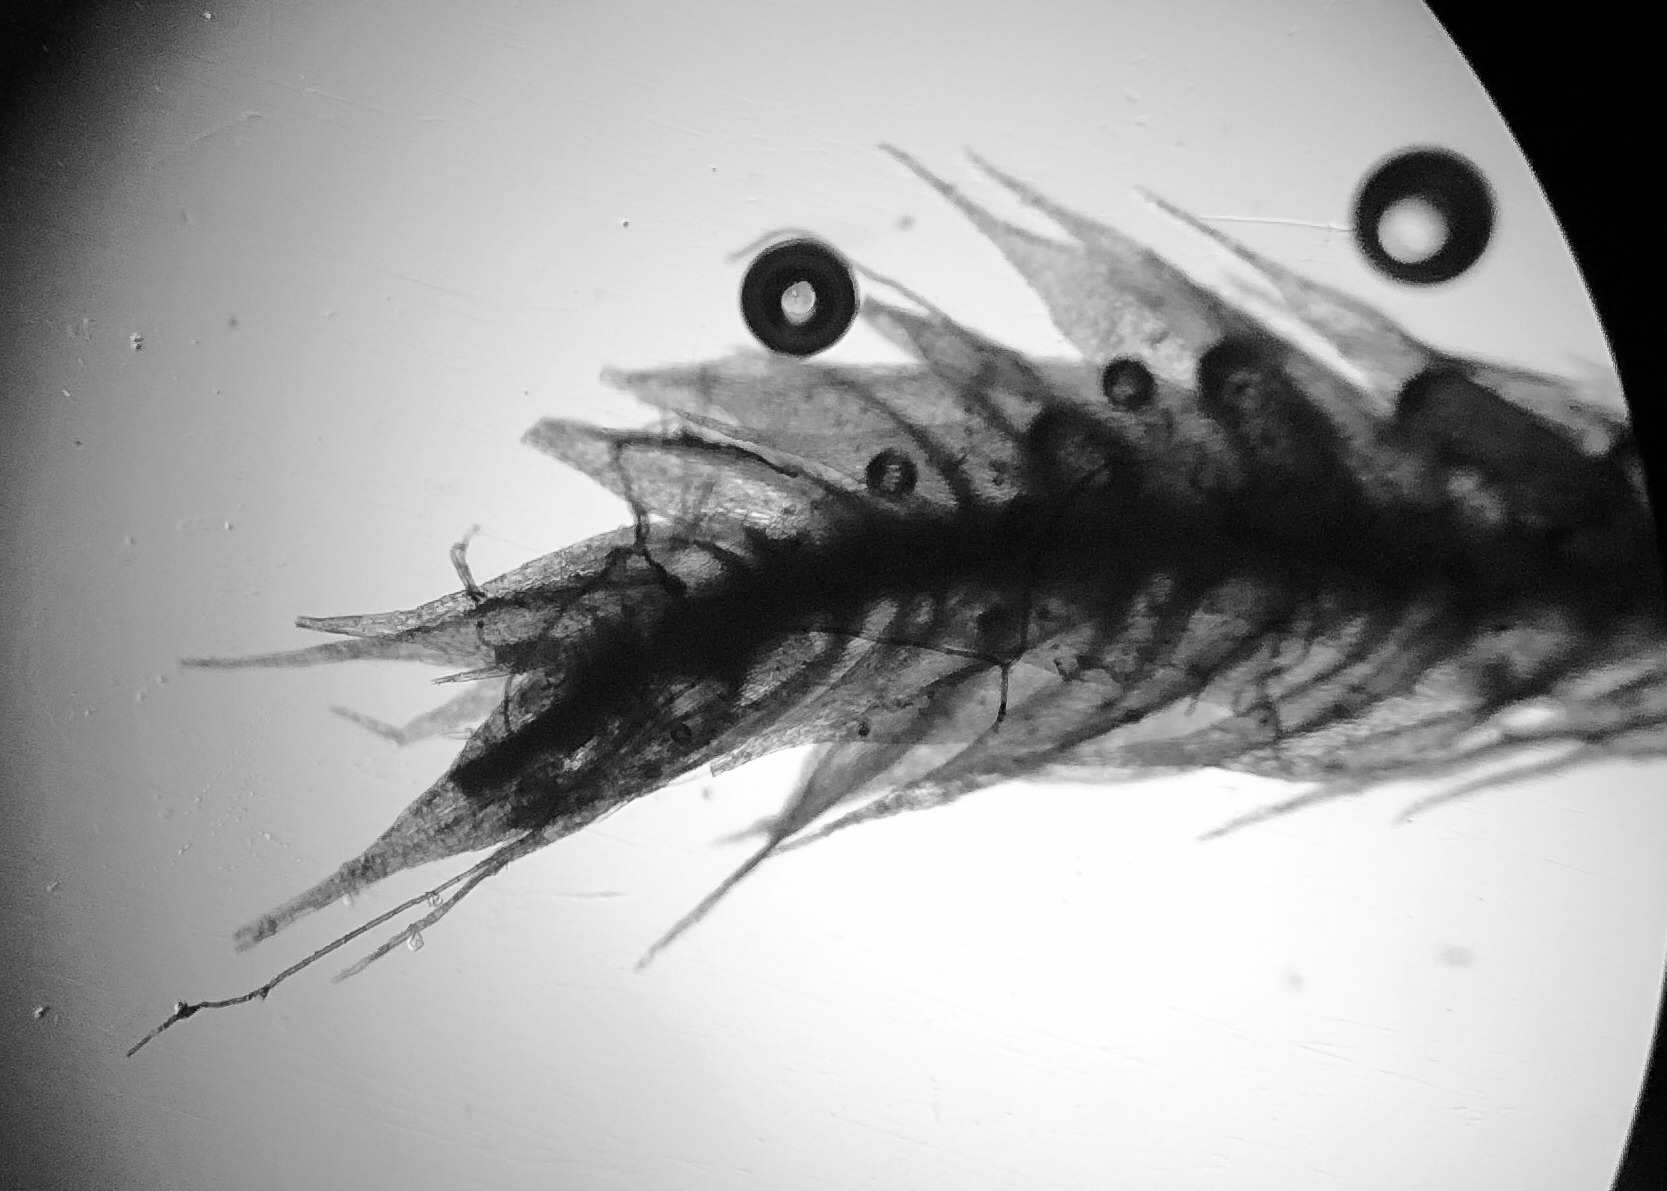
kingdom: Plantae
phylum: Bryophyta
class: Bryopsida
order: Hypnales
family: Brachytheciaceae
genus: Brachythecium
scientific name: Brachythecium albicans
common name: Hvidlig kortkapsel
